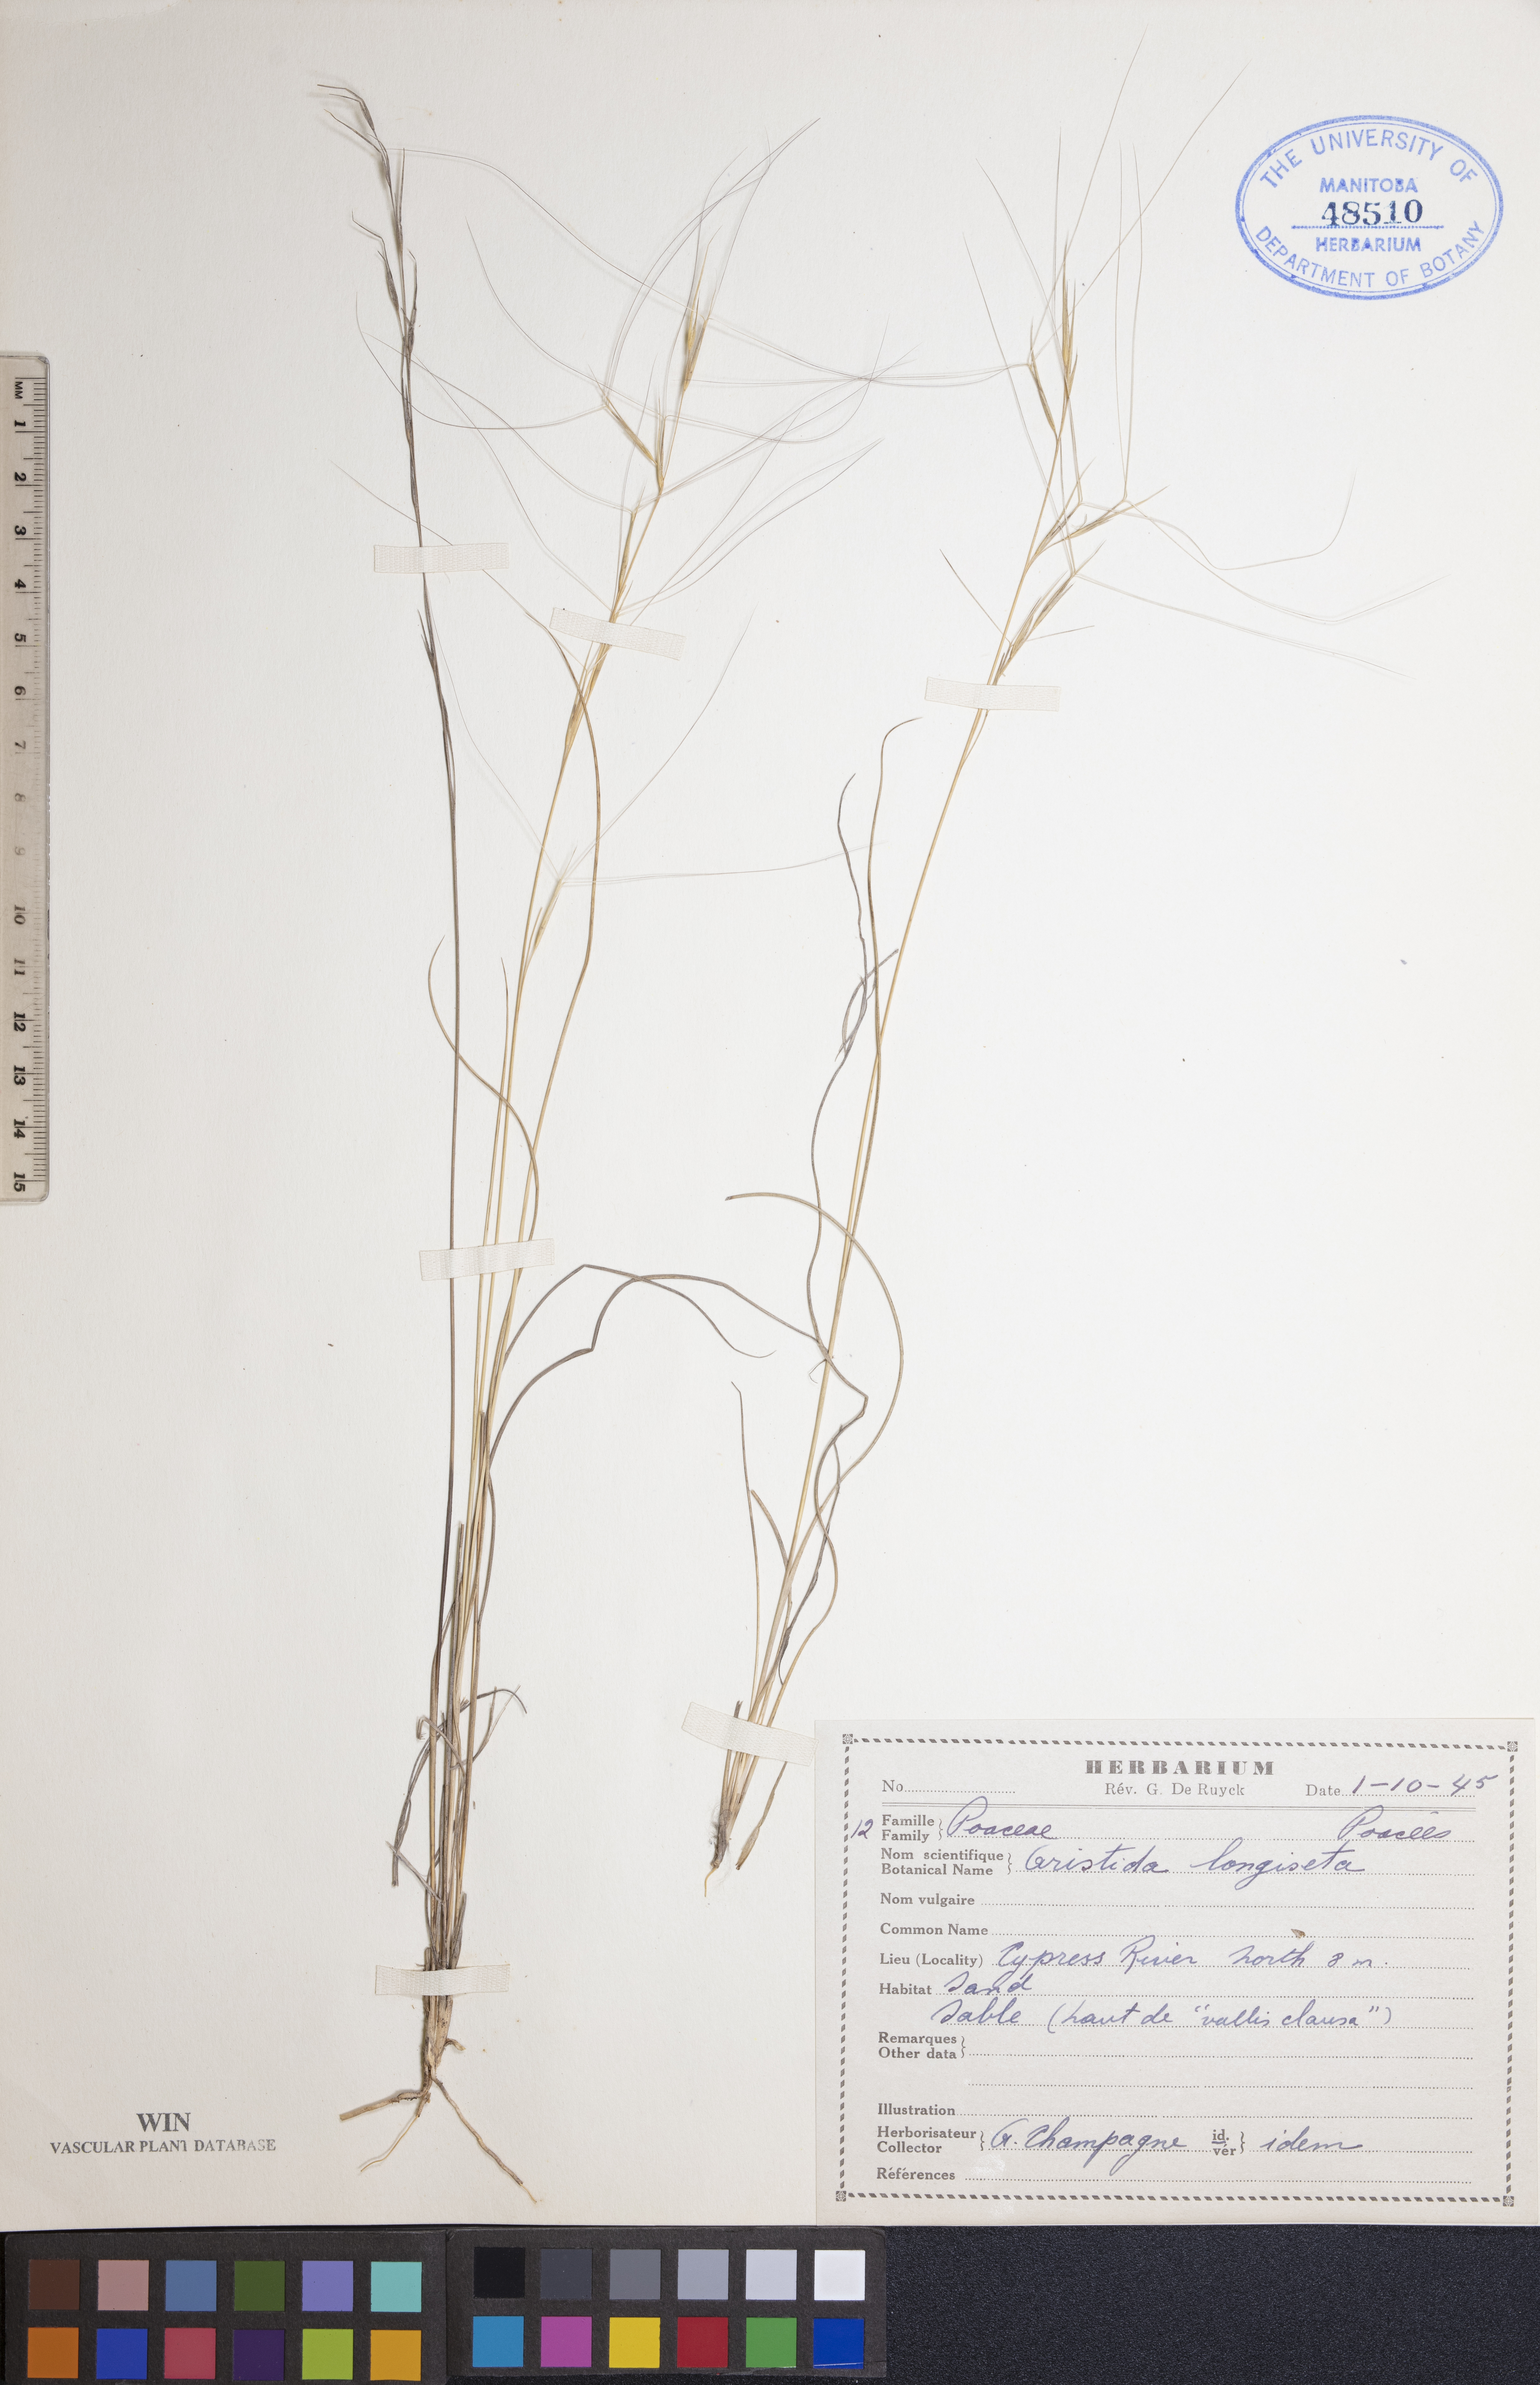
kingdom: Plantae
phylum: Tracheophyta
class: Liliopsida
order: Poales
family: Poaceae
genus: Aristida
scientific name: Aristida longiseta
